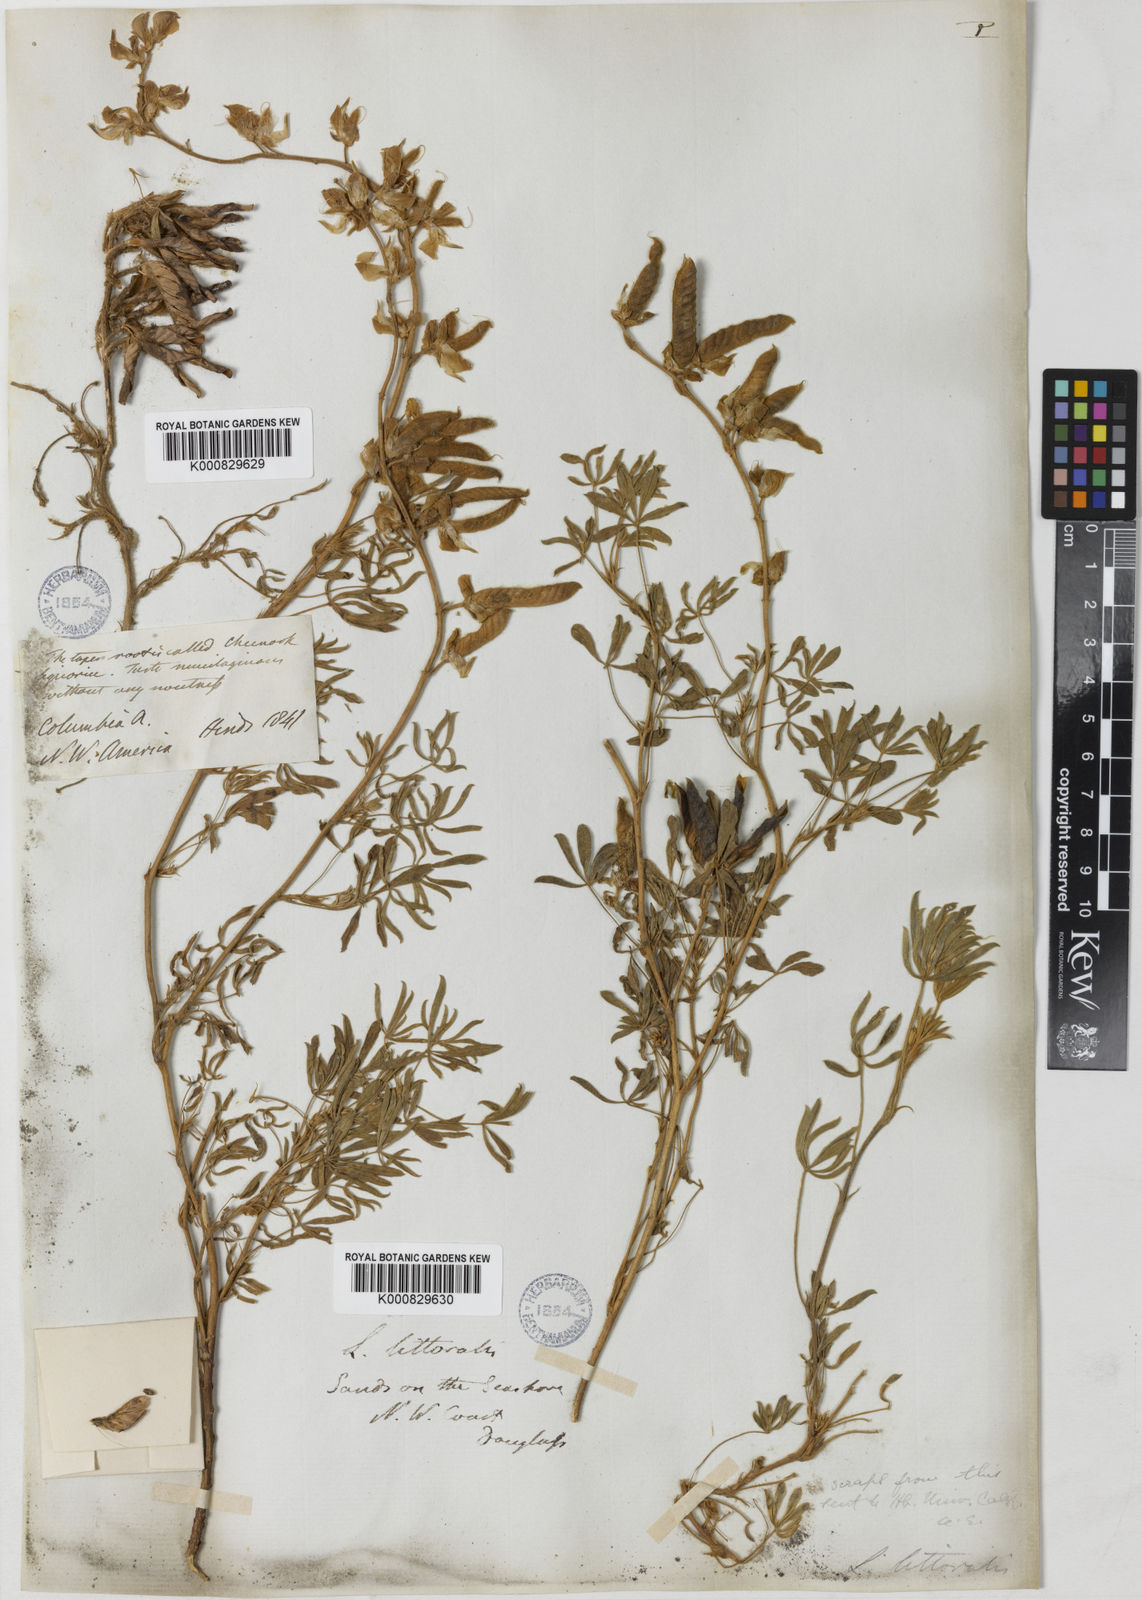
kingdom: Plantae
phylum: Tracheophyta
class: Magnoliopsida
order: Fabales
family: Fabaceae
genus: Lupinus
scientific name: Lupinus littoralis
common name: Seashore lupine
